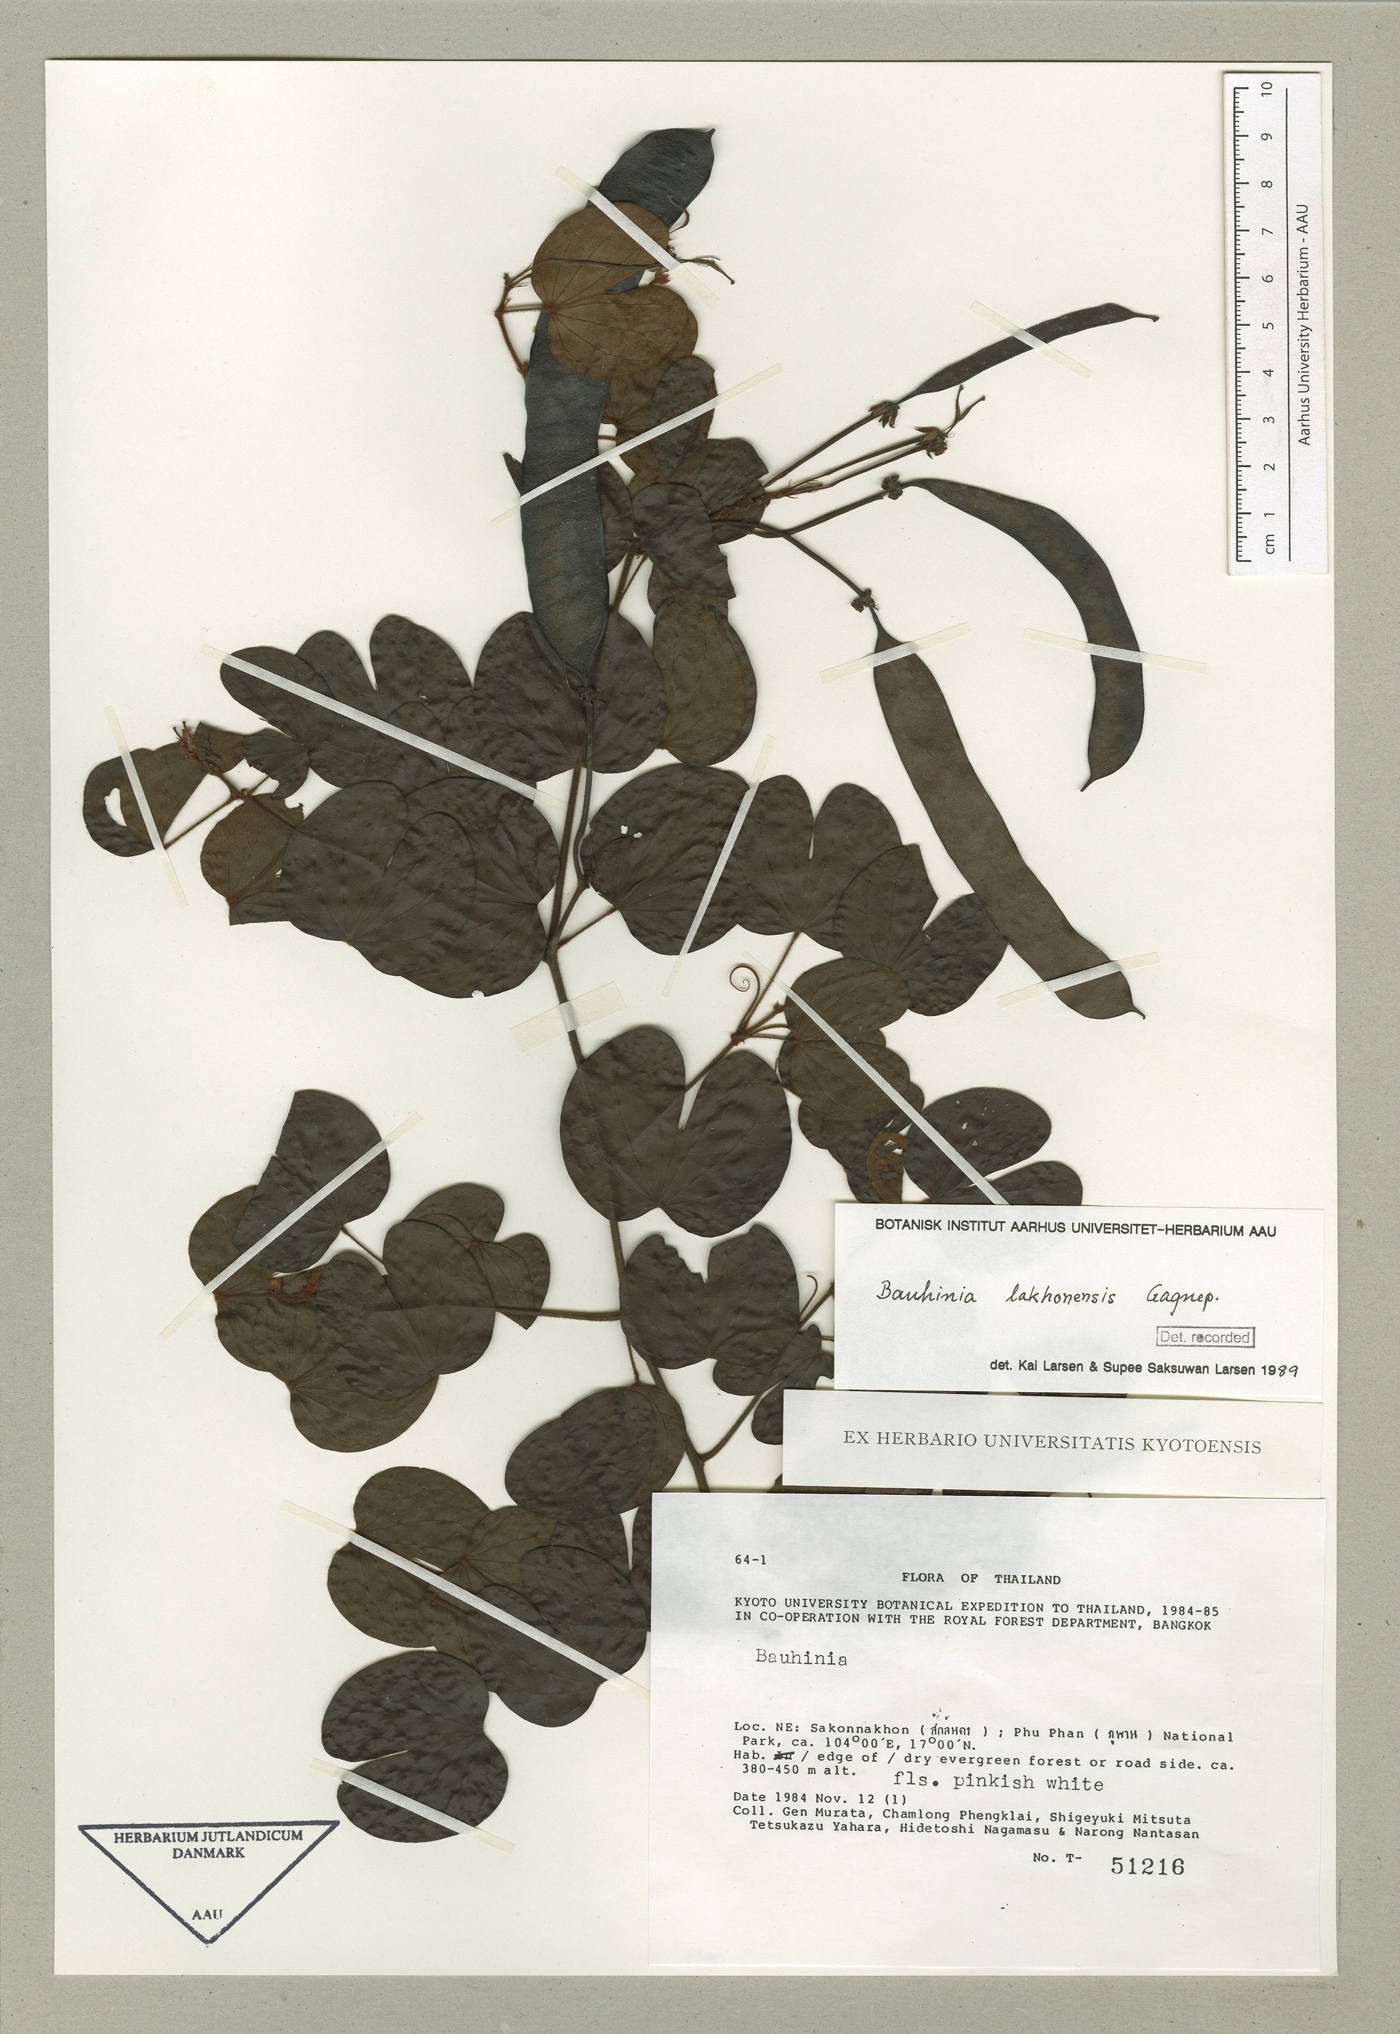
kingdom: Plantae
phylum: Tracheophyta
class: Magnoliopsida
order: Fabales
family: Fabaceae
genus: Cheniella
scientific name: Cheniella lakhonensis
